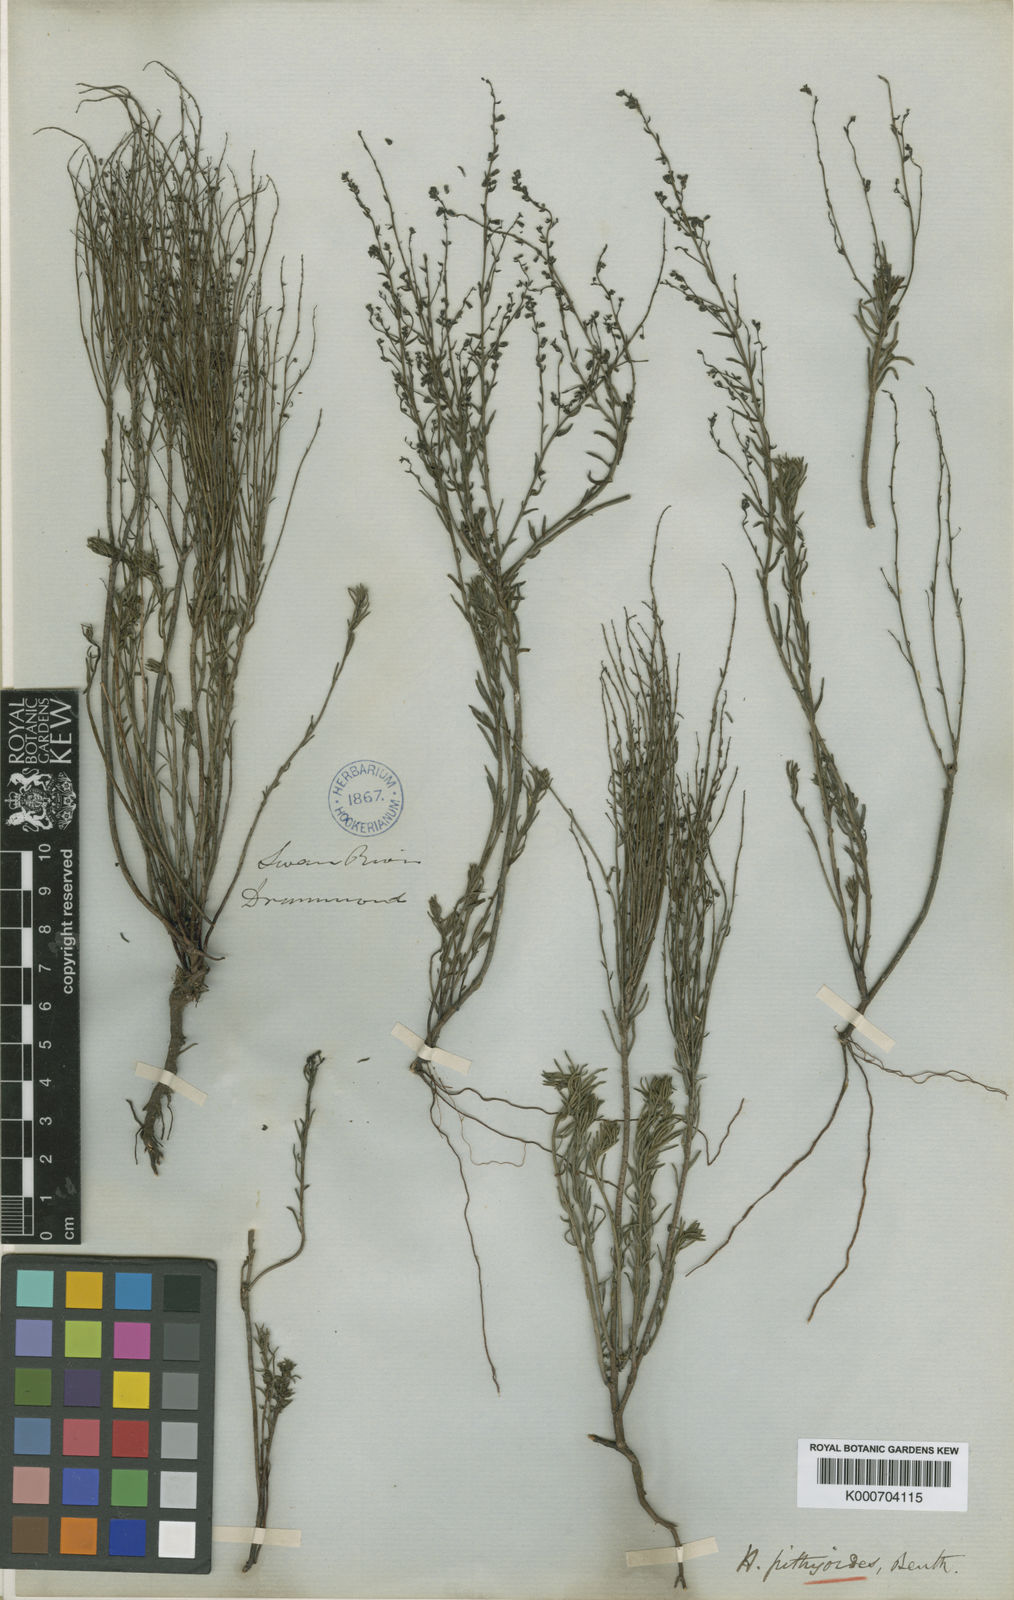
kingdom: Plantae
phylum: Tracheophyta
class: Magnoliopsida
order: Saxifragales
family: Haloragaceae
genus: Gonocarpus
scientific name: Gonocarpus pithyoides
